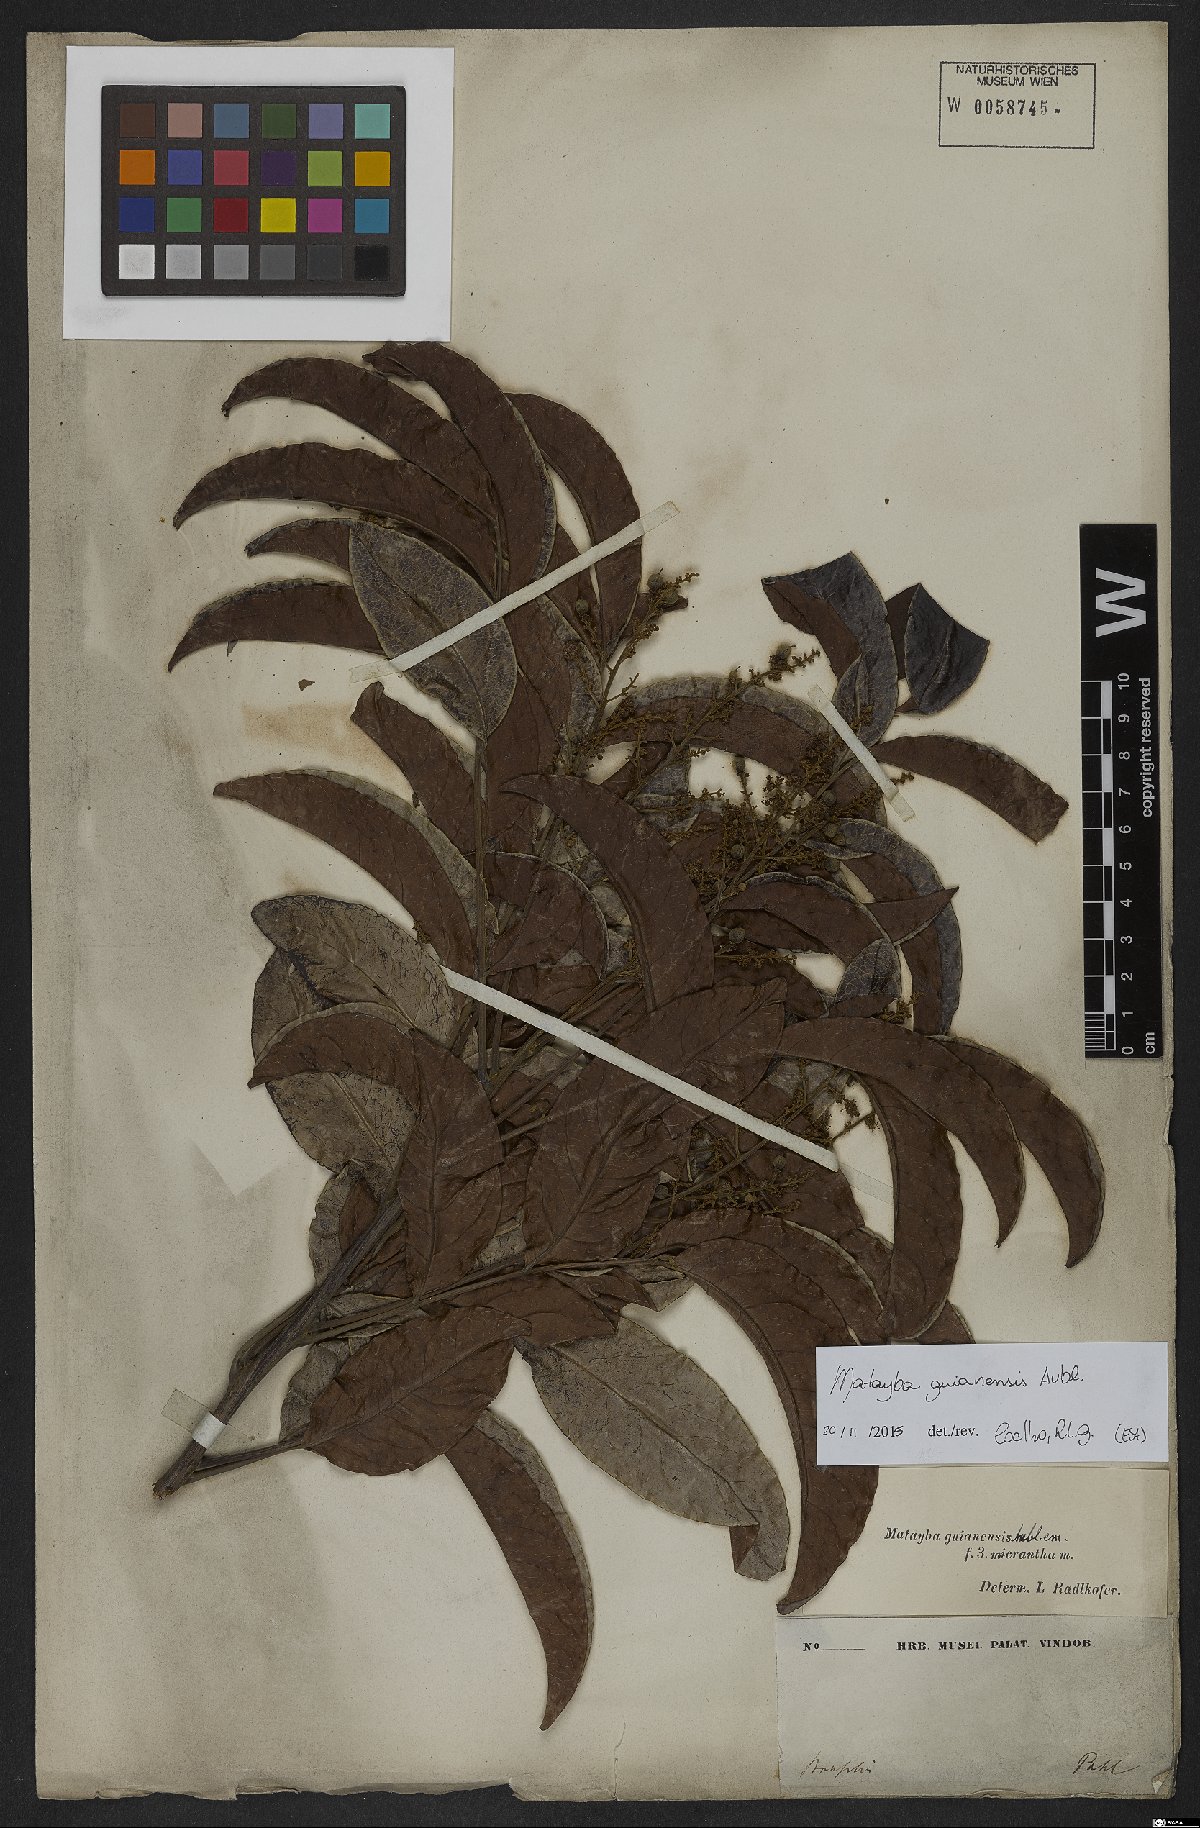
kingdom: Plantae
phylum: Tracheophyta
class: Magnoliopsida
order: Sapindales
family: Sapindaceae
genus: Matayba
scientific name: Matayba guianensis
